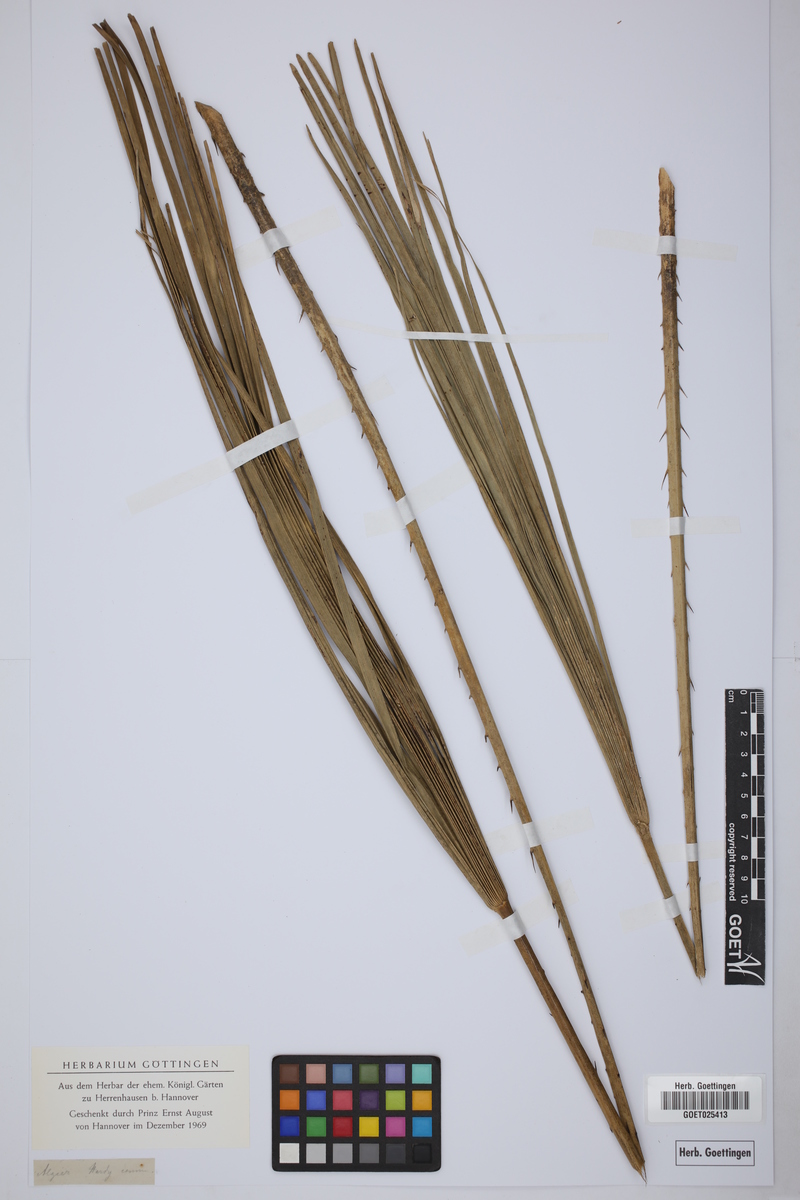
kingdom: Plantae
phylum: Tracheophyta
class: Liliopsida
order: Arecales
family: Arecaceae
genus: Chamaerops
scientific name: Chamaerops guianensis
